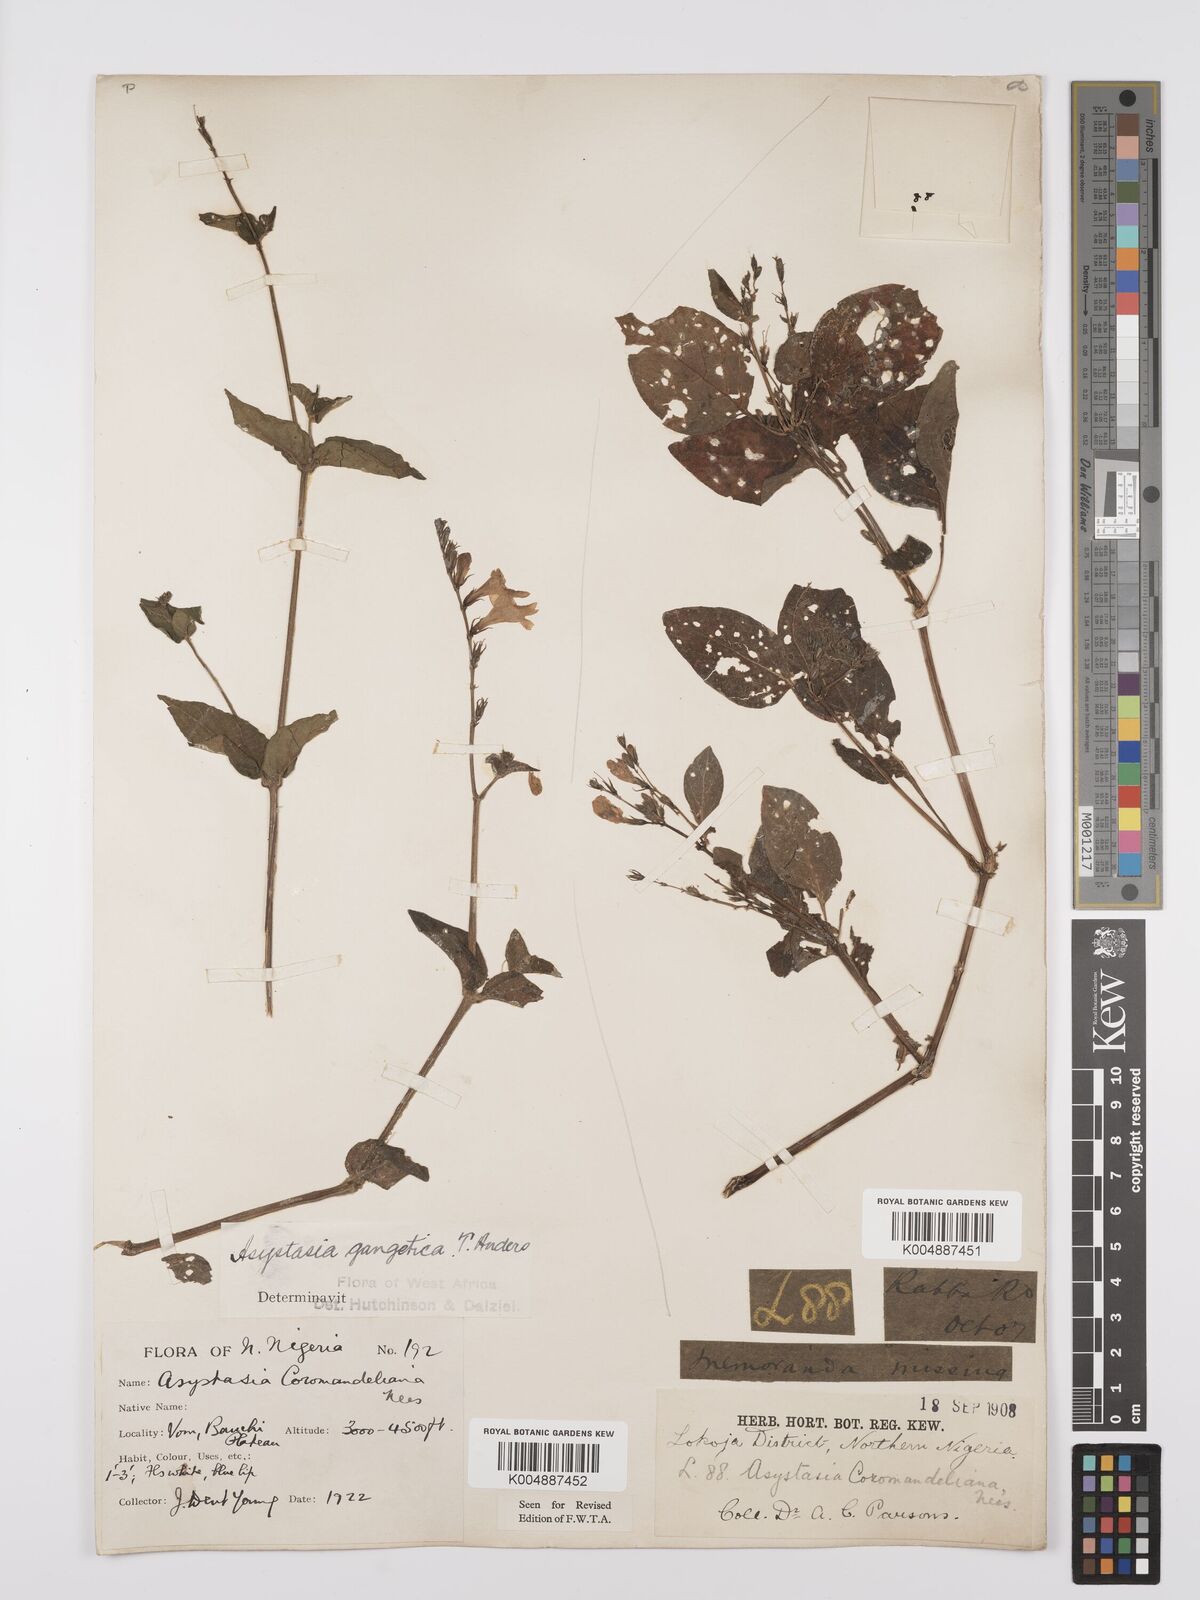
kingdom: Plantae
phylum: Tracheophyta
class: Magnoliopsida
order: Lamiales
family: Acanthaceae
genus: Asystasia
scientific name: Asystasia gangetica
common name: Chinese violet
